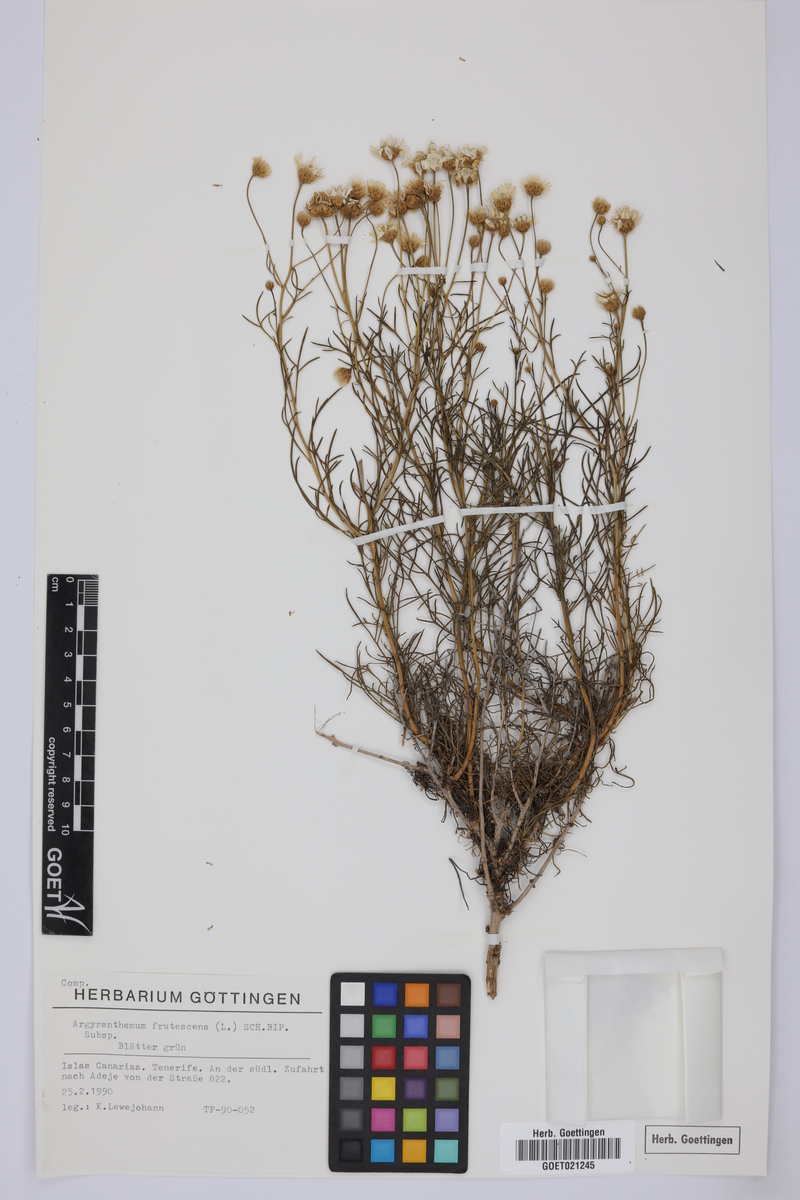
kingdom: Plantae
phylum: Tracheophyta
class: Magnoliopsida
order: Asterales
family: Asteraceae
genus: Argyranthemum
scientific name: Argyranthemum frutescens
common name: Paris daisy
